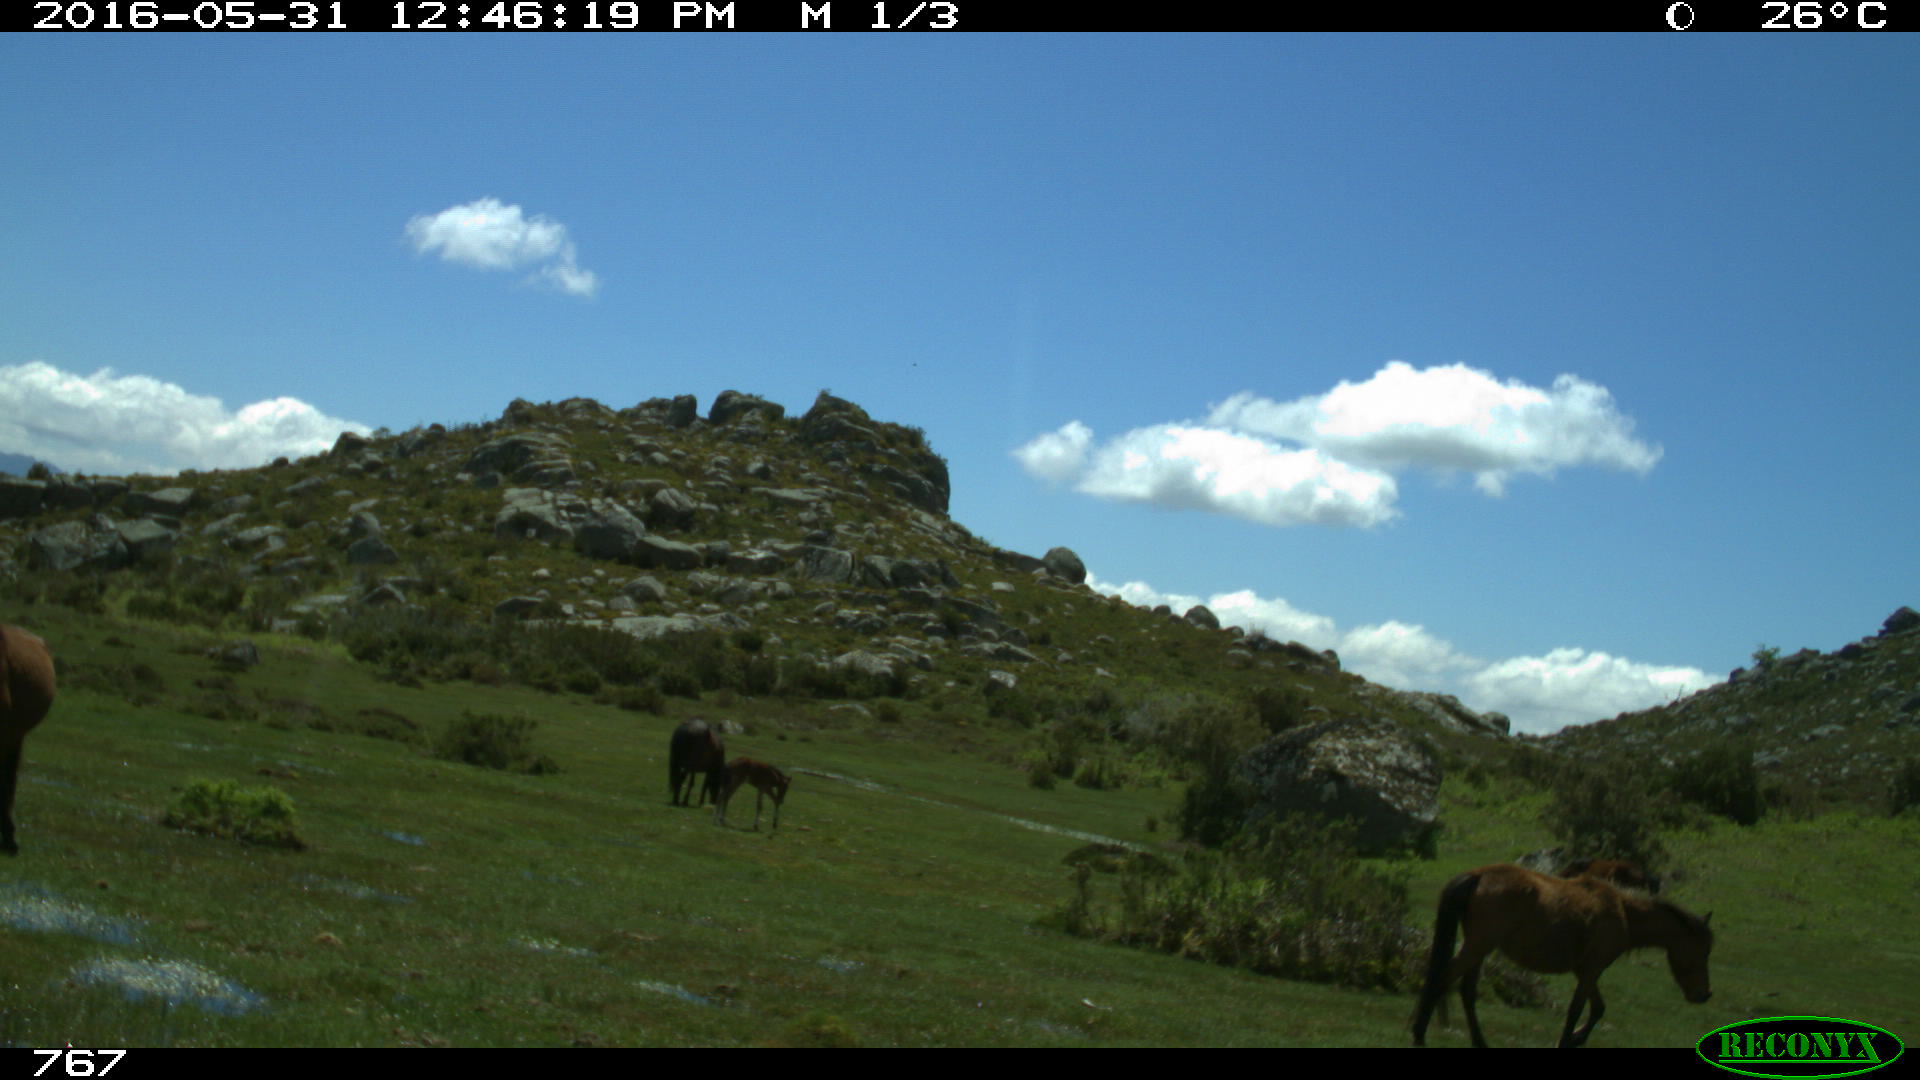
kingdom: Animalia
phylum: Chordata
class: Mammalia
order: Perissodactyla
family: Equidae
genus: Equus
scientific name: Equus caballus
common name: Horse
